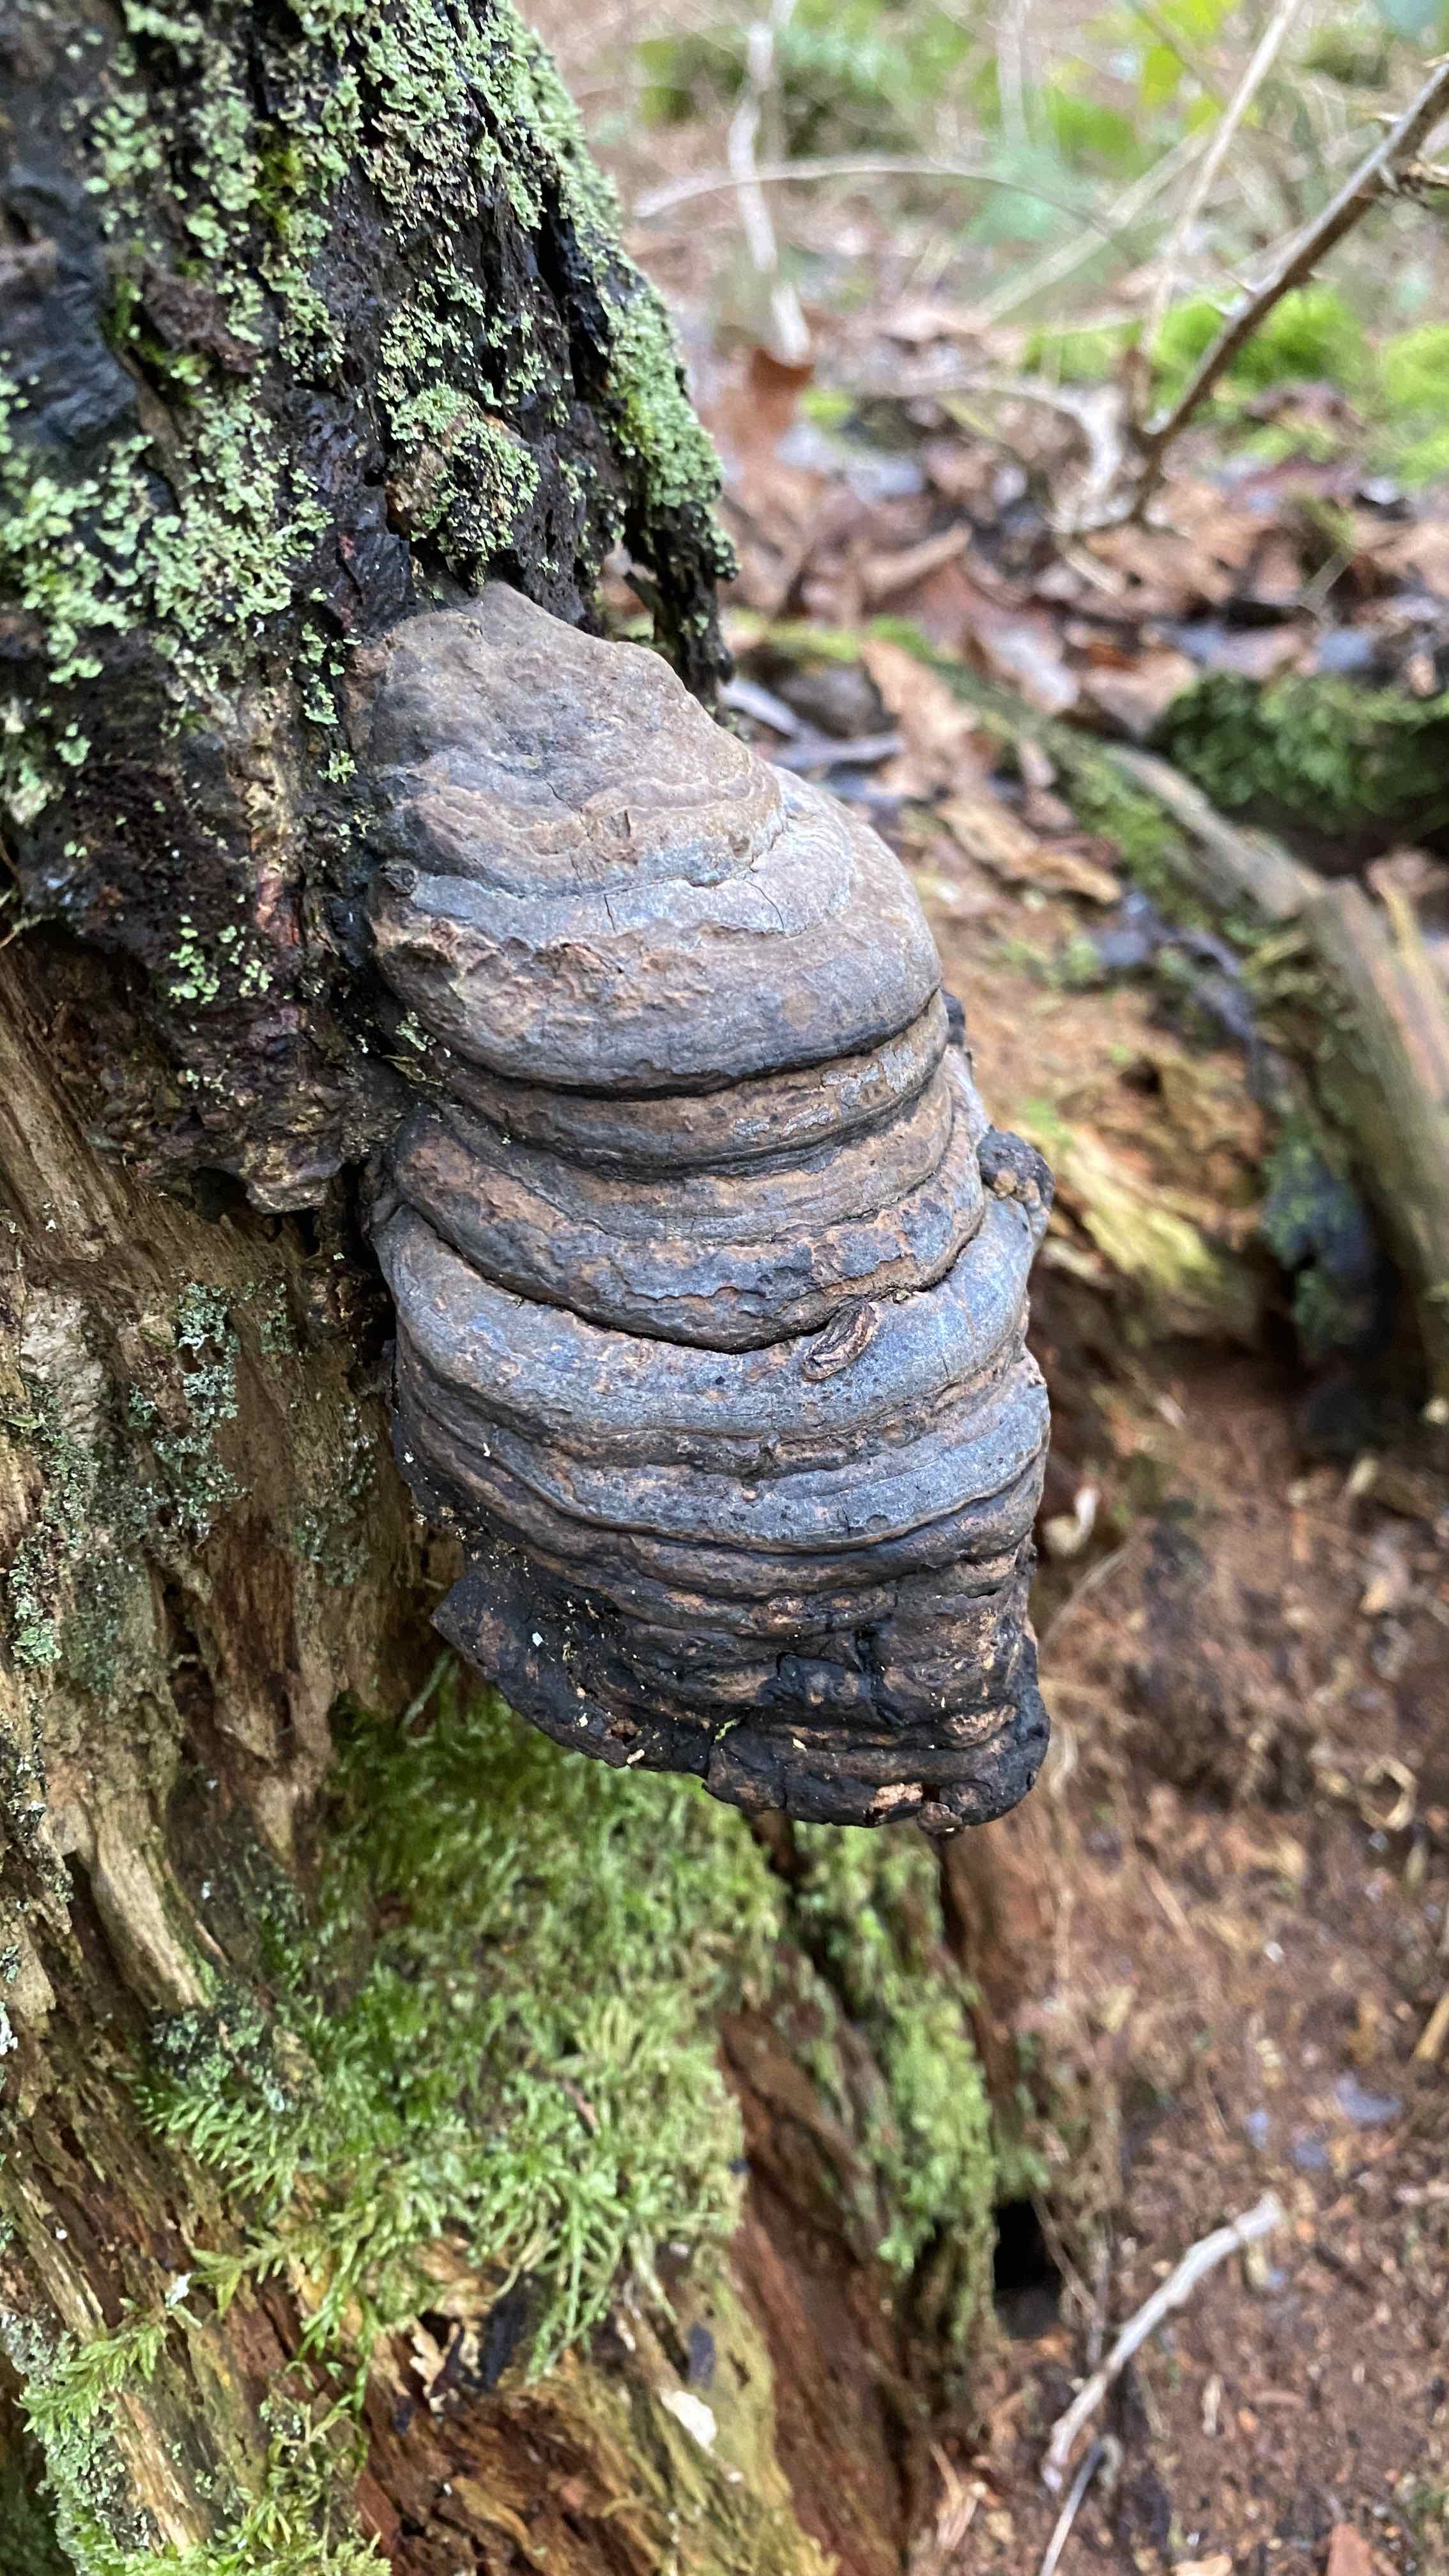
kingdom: Fungi
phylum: Basidiomycota
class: Agaricomycetes
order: Polyporales
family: Polyporaceae
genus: Fomes
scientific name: Fomes fomentarius
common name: tøndersvamp
